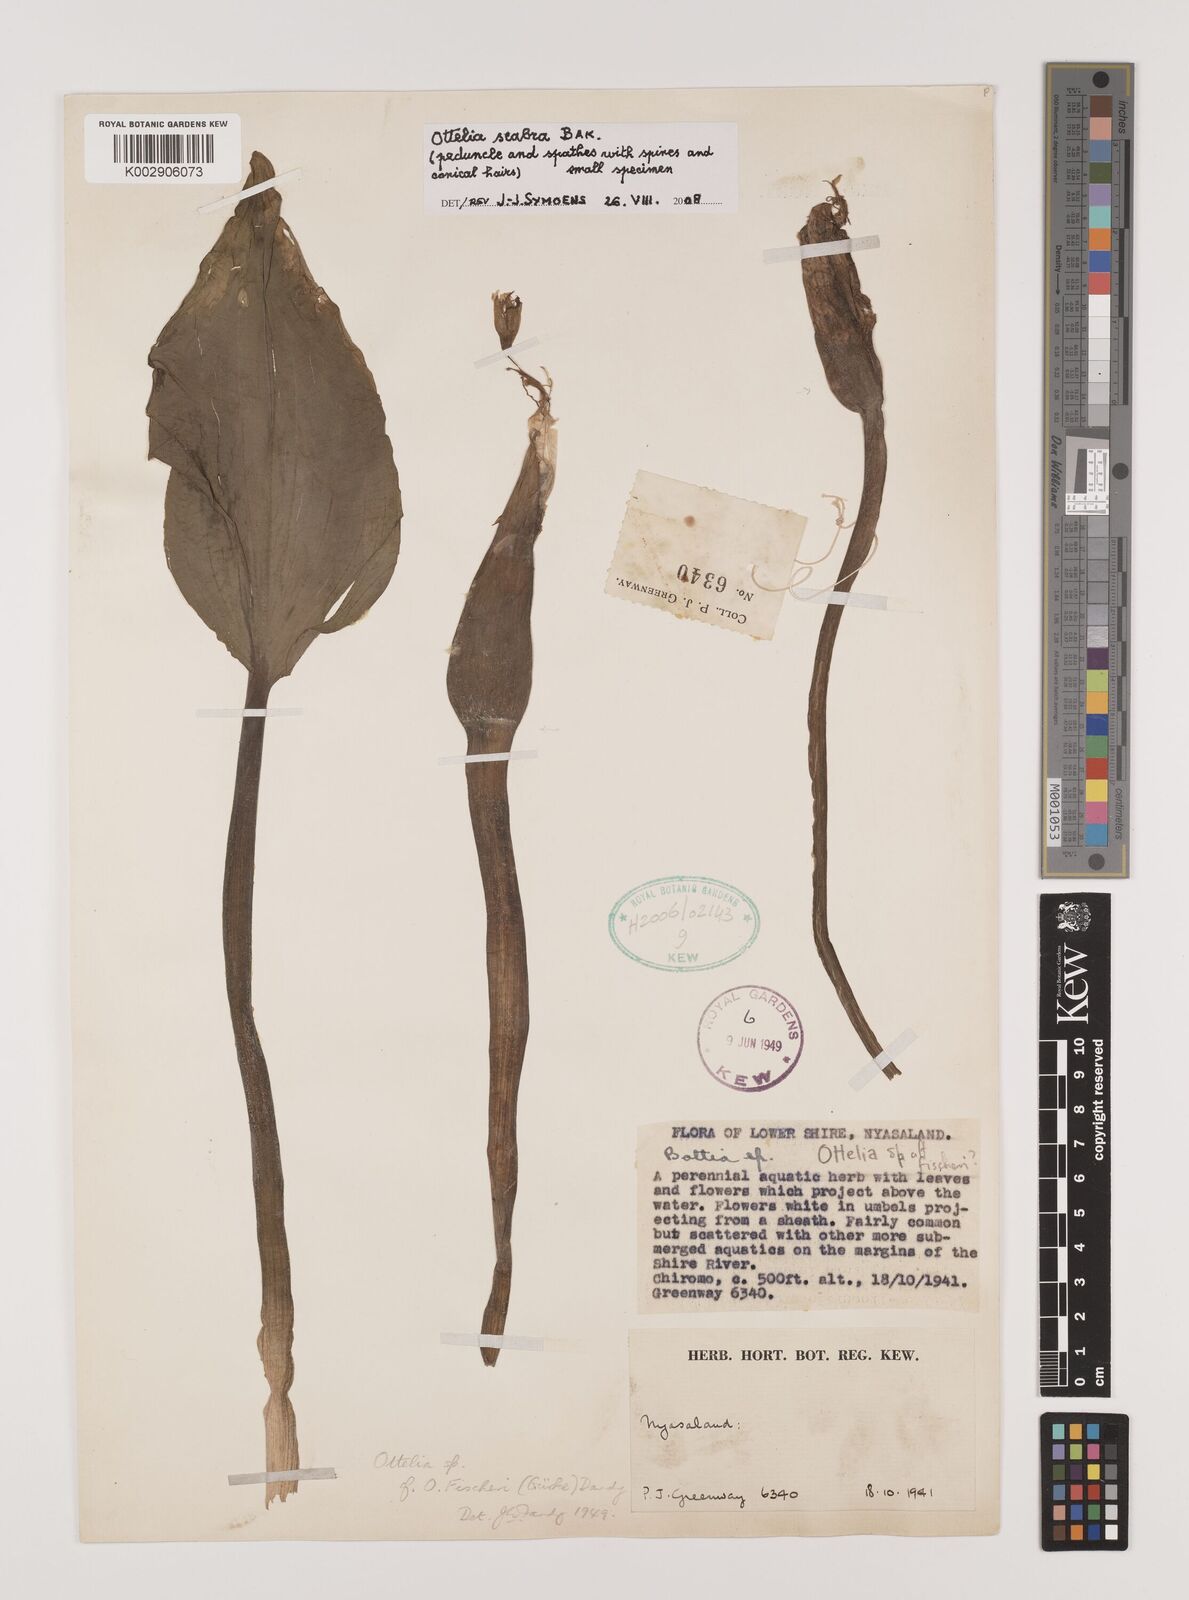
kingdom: Plantae
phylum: Tracheophyta
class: Liliopsida
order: Alismatales
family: Hydrocharitaceae
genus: Ottelia
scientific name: Ottelia scabra
